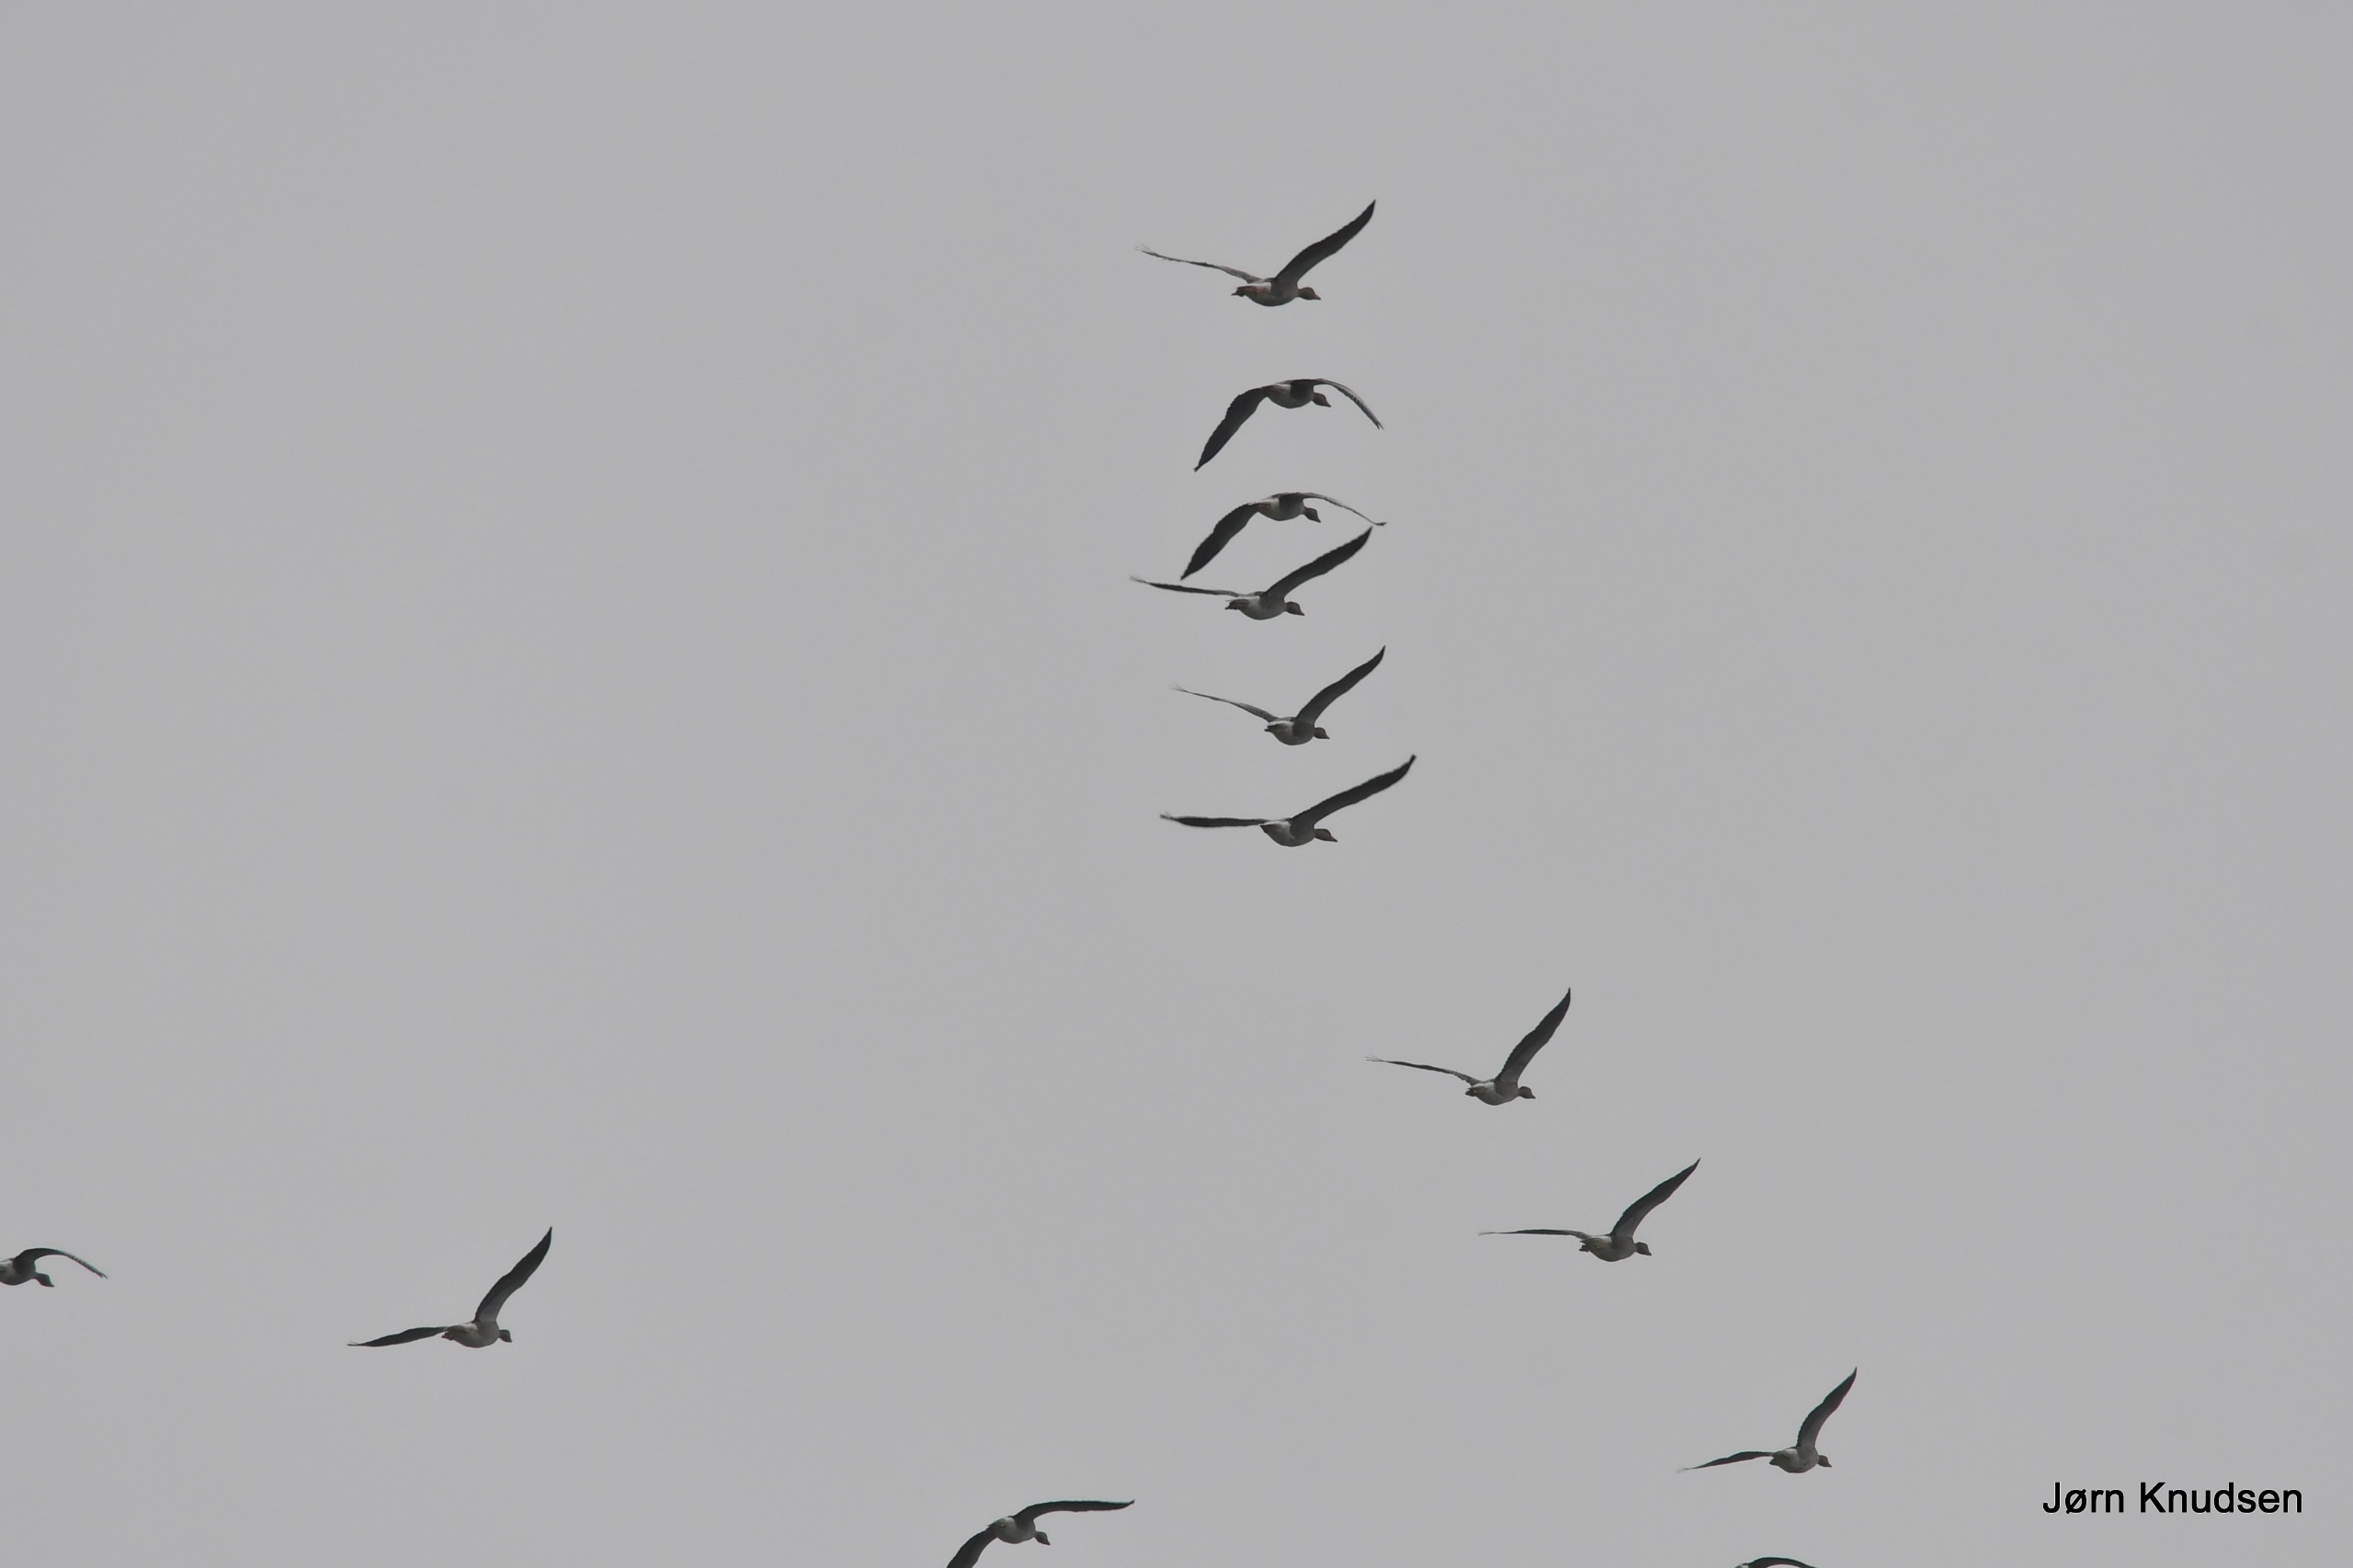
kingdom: Animalia
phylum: Chordata
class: Aves
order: Anseriformes
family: Anatidae
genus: Anser
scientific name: Anser anser
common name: Grågås
